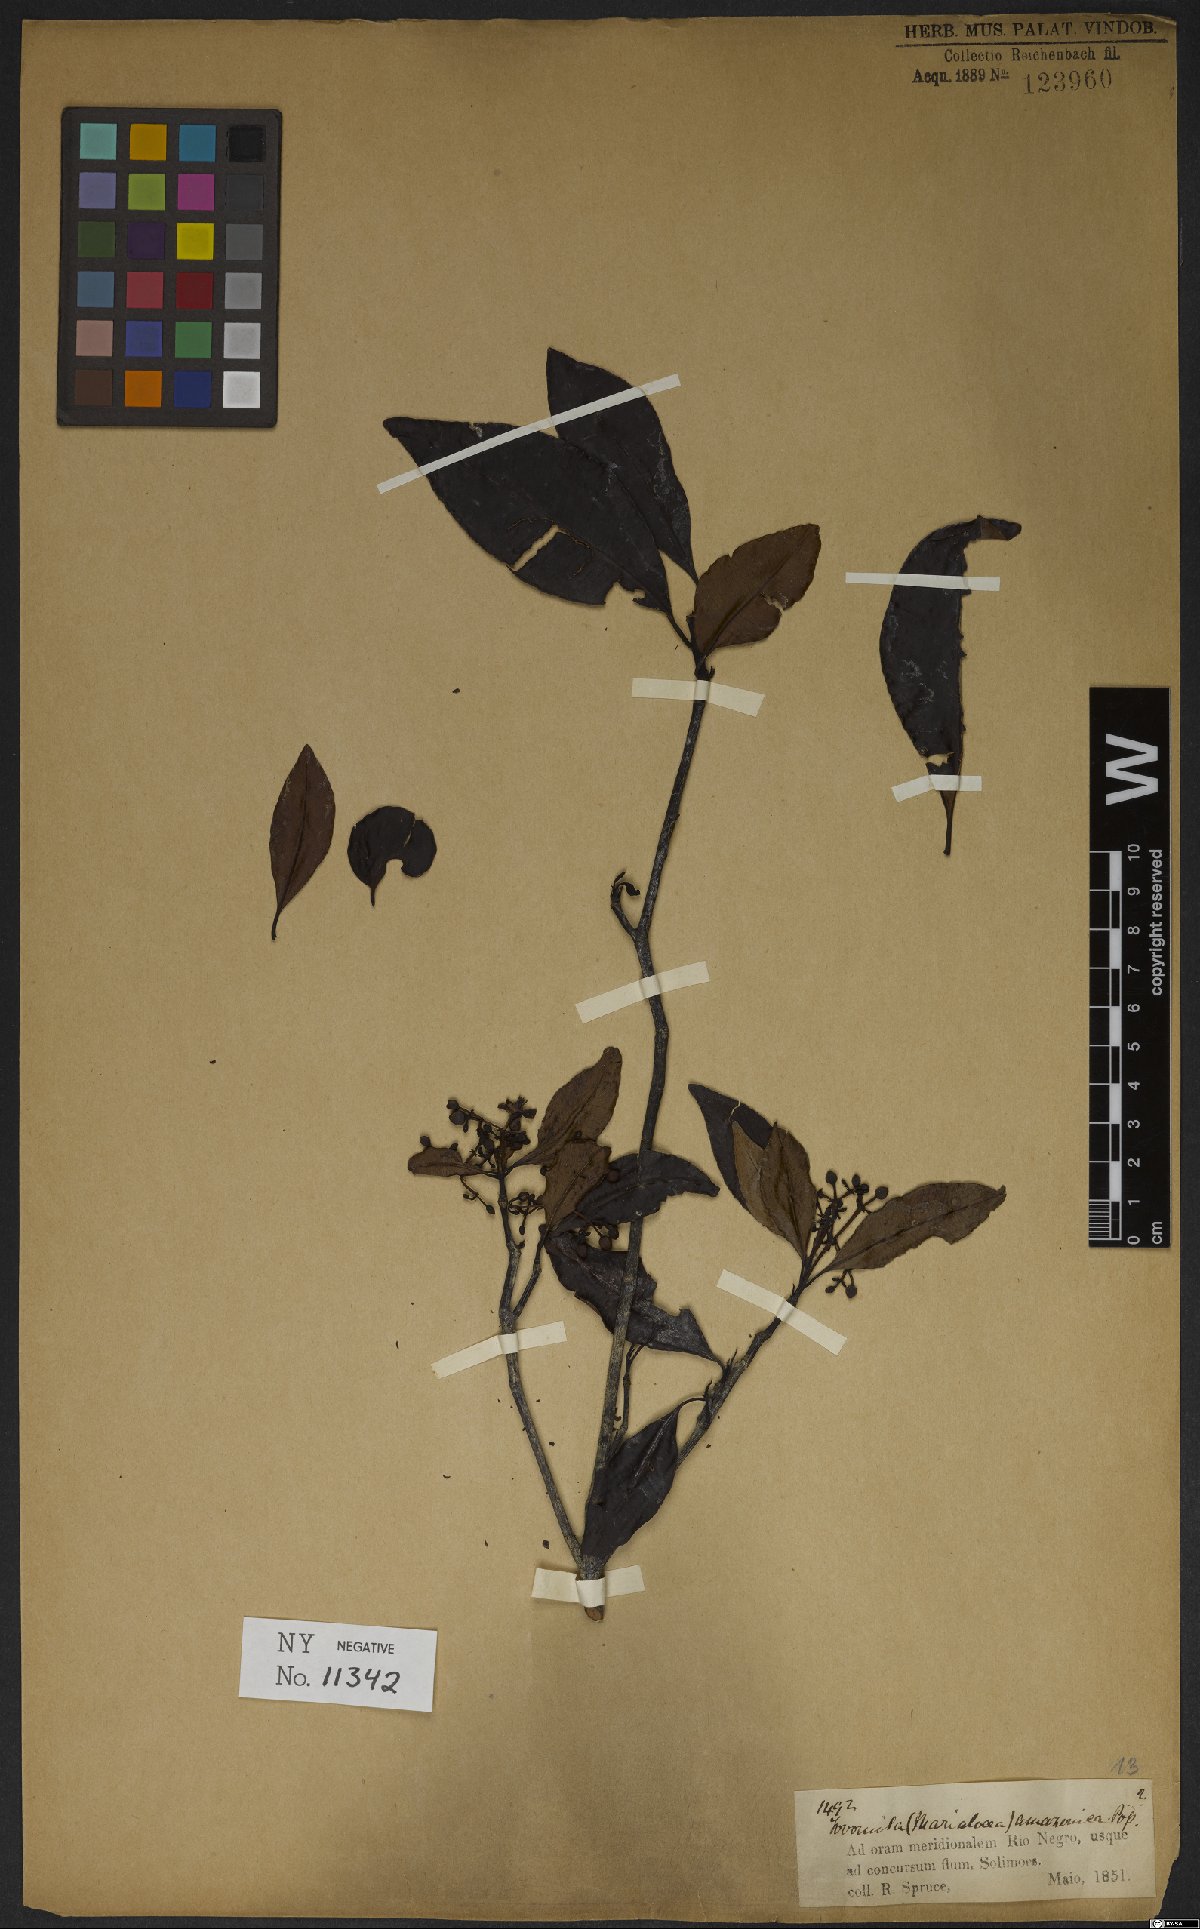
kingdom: Plantae
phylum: Tracheophyta
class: Magnoliopsida
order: Malpighiales
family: Clusiaceae
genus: Tovomita
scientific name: Tovomita amazonica
